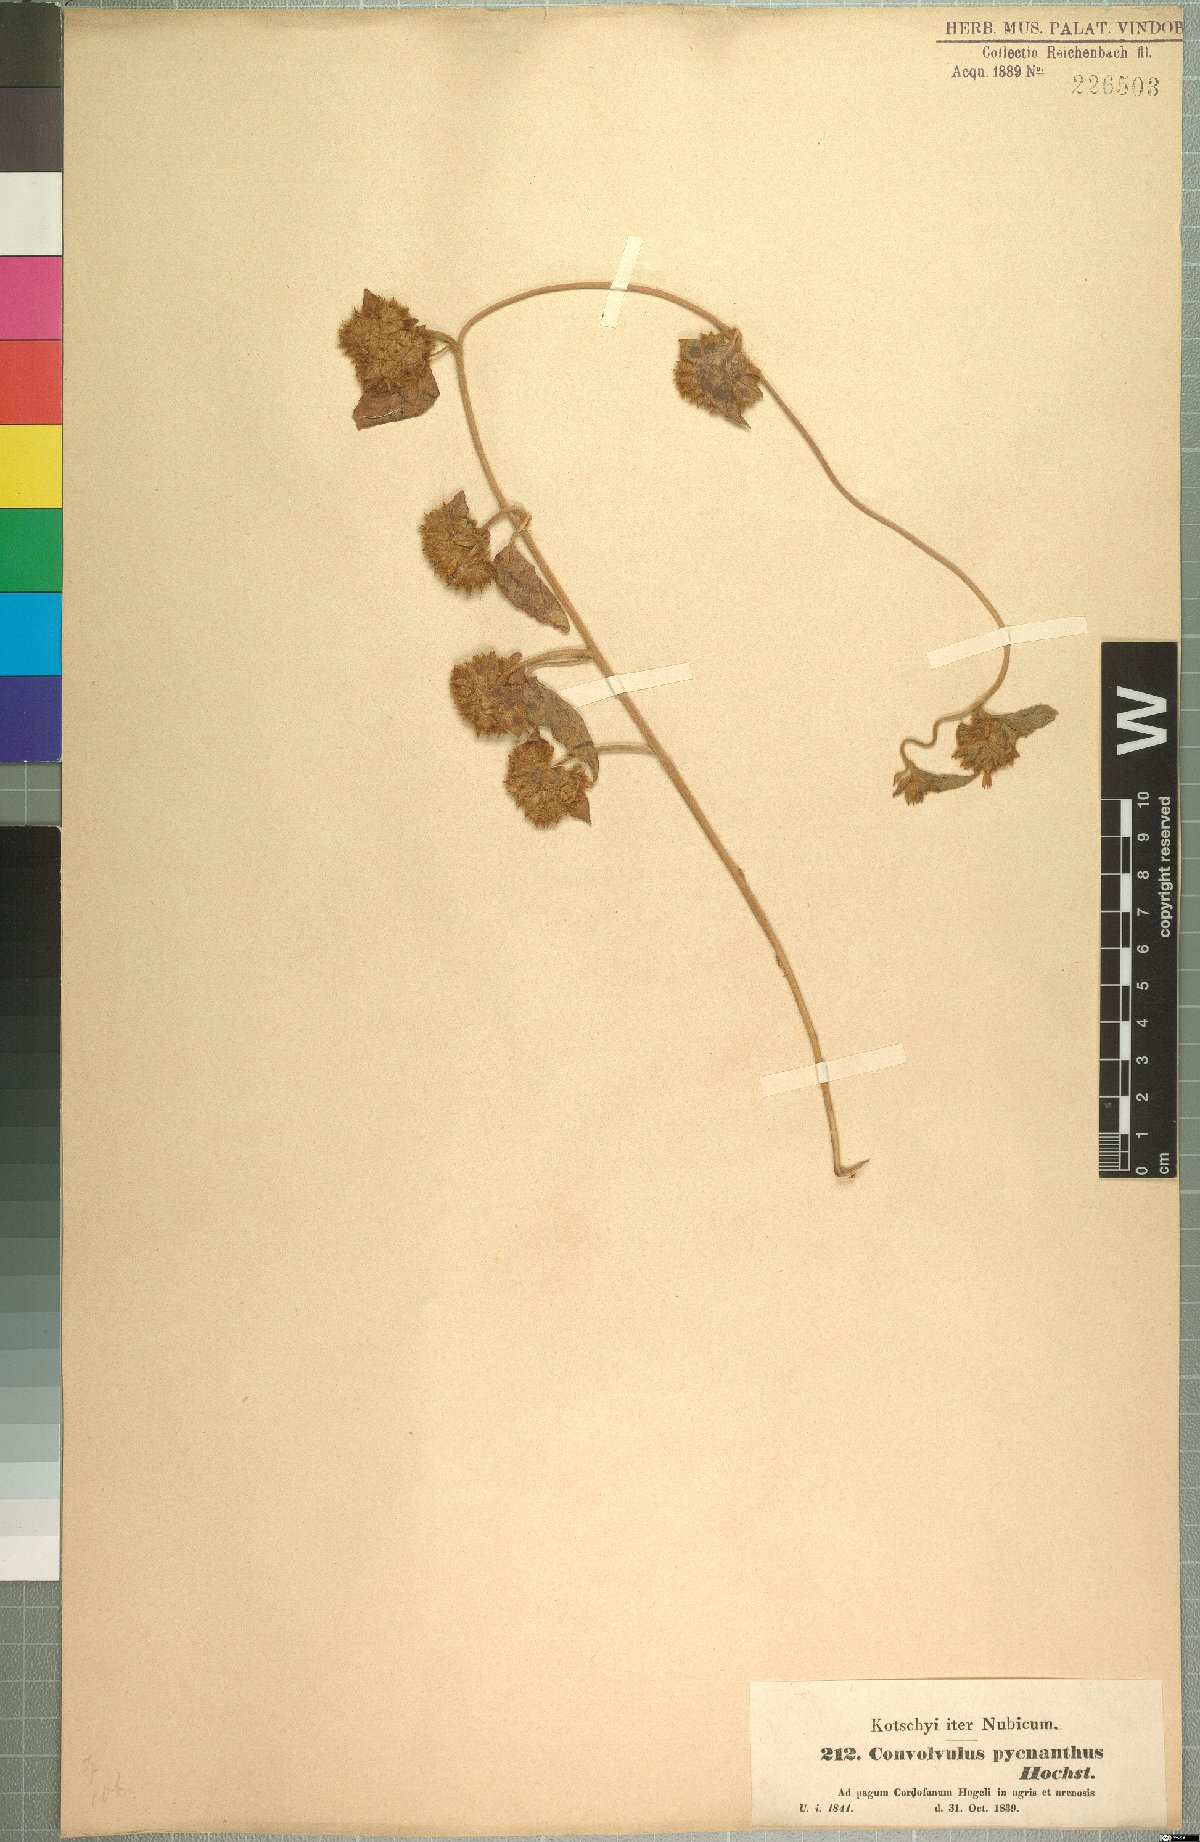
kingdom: Plantae
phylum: Tracheophyta
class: Magnoliopsida
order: Solanales
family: Convolvulaceae
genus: Jacquemontia
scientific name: Jacquemontia tamnifolia
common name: Hairy clustervine
